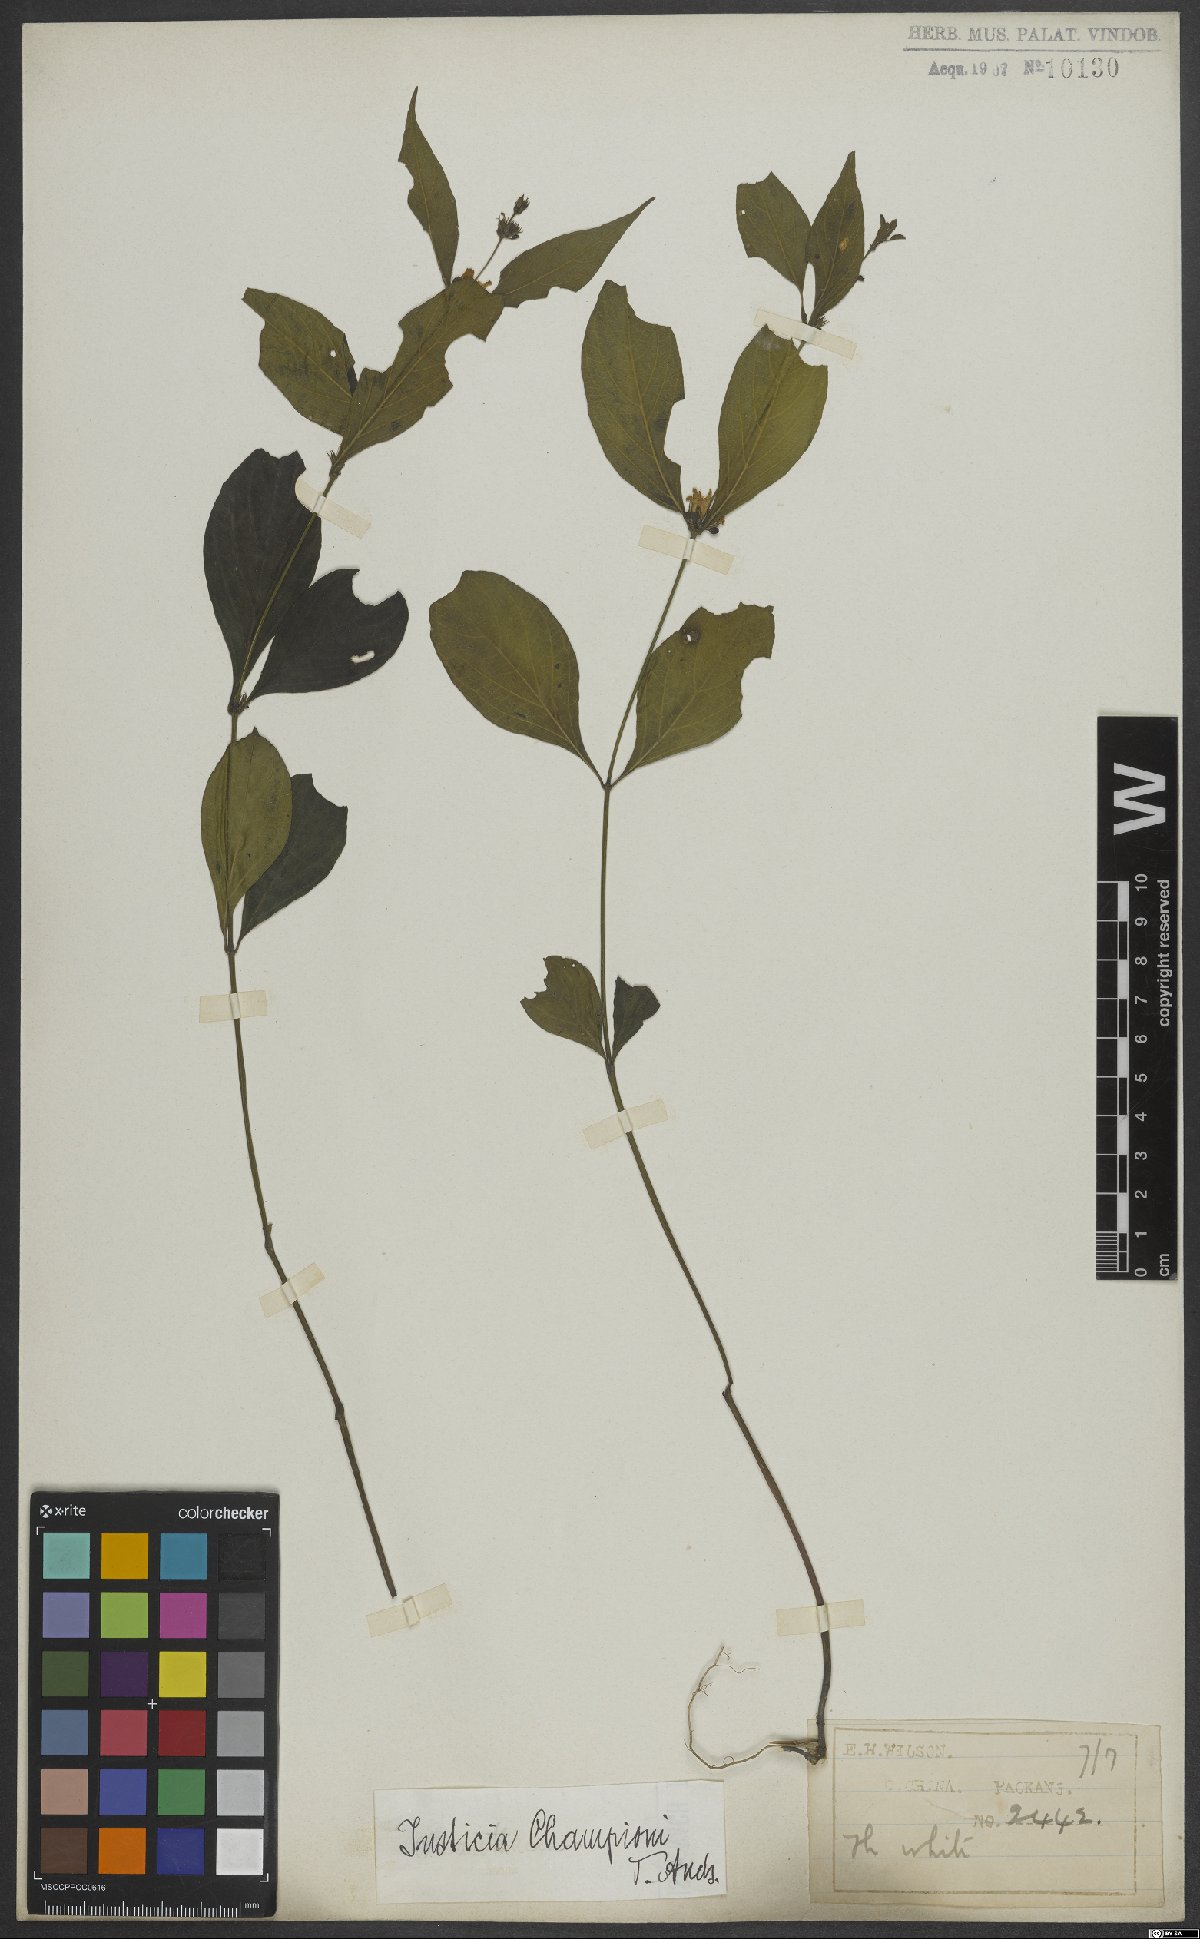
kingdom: Plantae
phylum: Tracheophyta
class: Magnoliopsida
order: Lamiales
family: Acanthaceae
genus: Justicia
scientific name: Justicia championii
